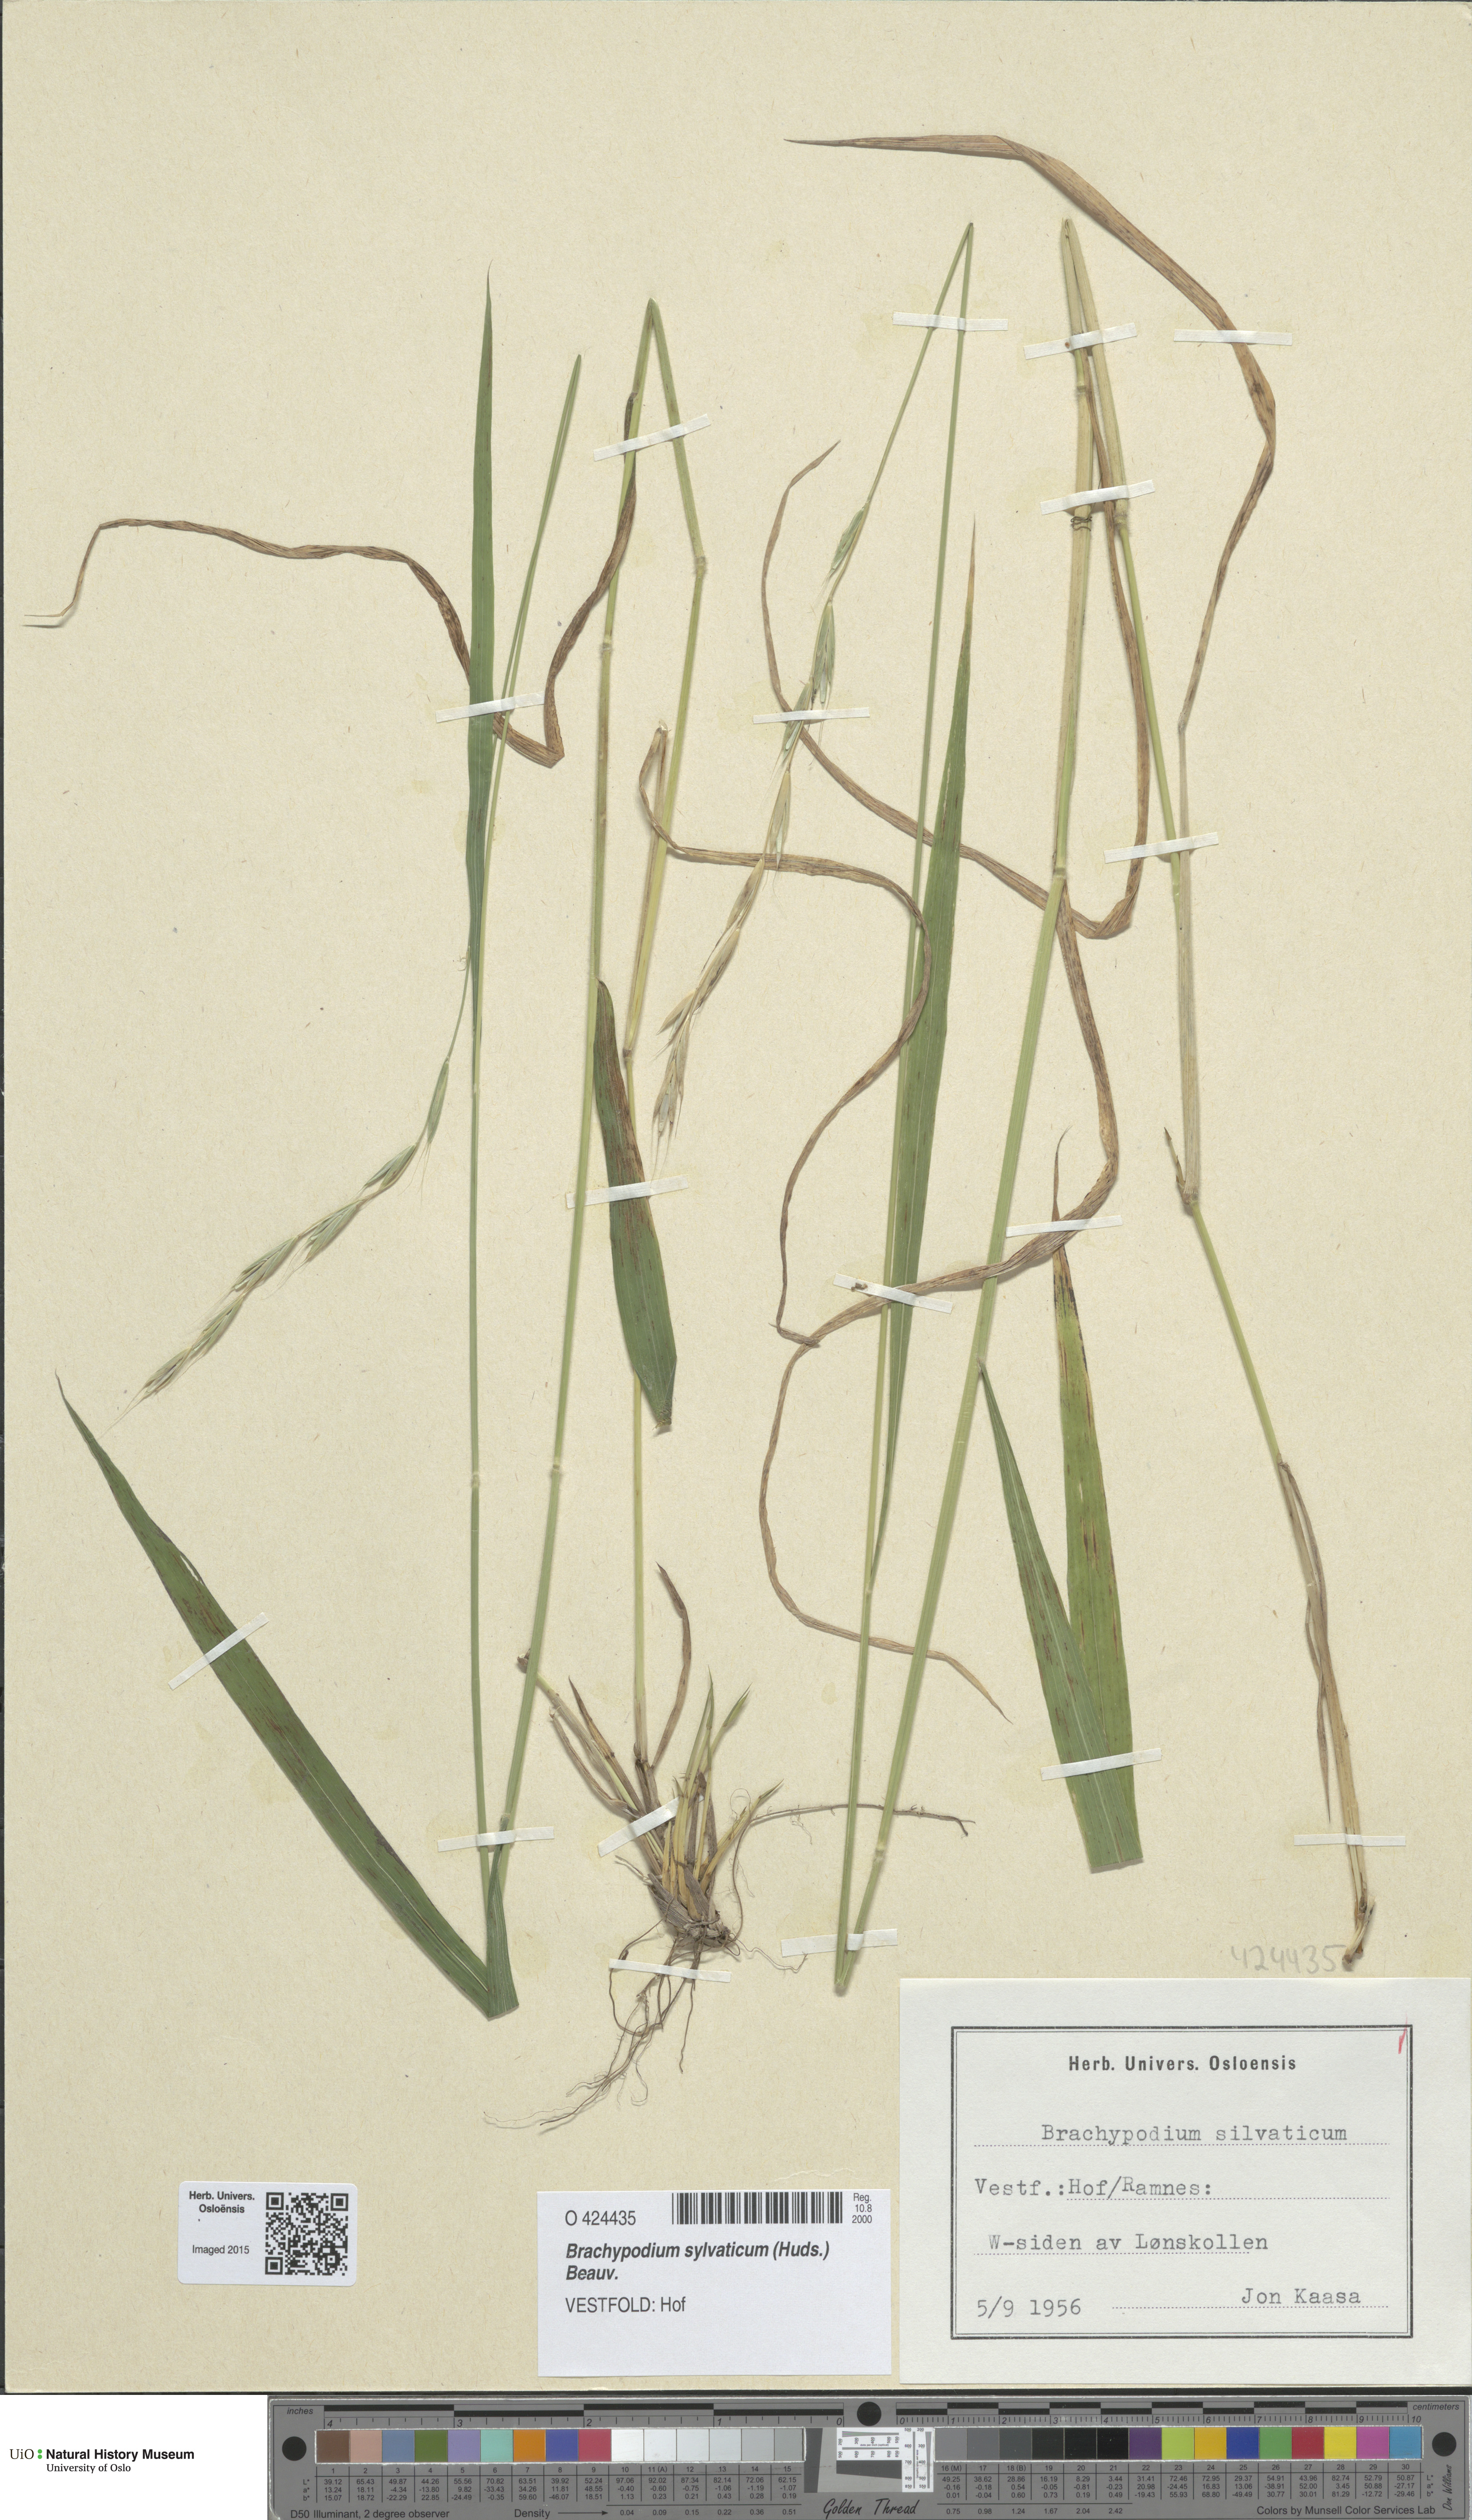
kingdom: Plantae
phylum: Tracheophyta
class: Liliopsida
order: Poales
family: Poaceae
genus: Brachypodium
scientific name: Brachypodium sylvaticum
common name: False-brome
